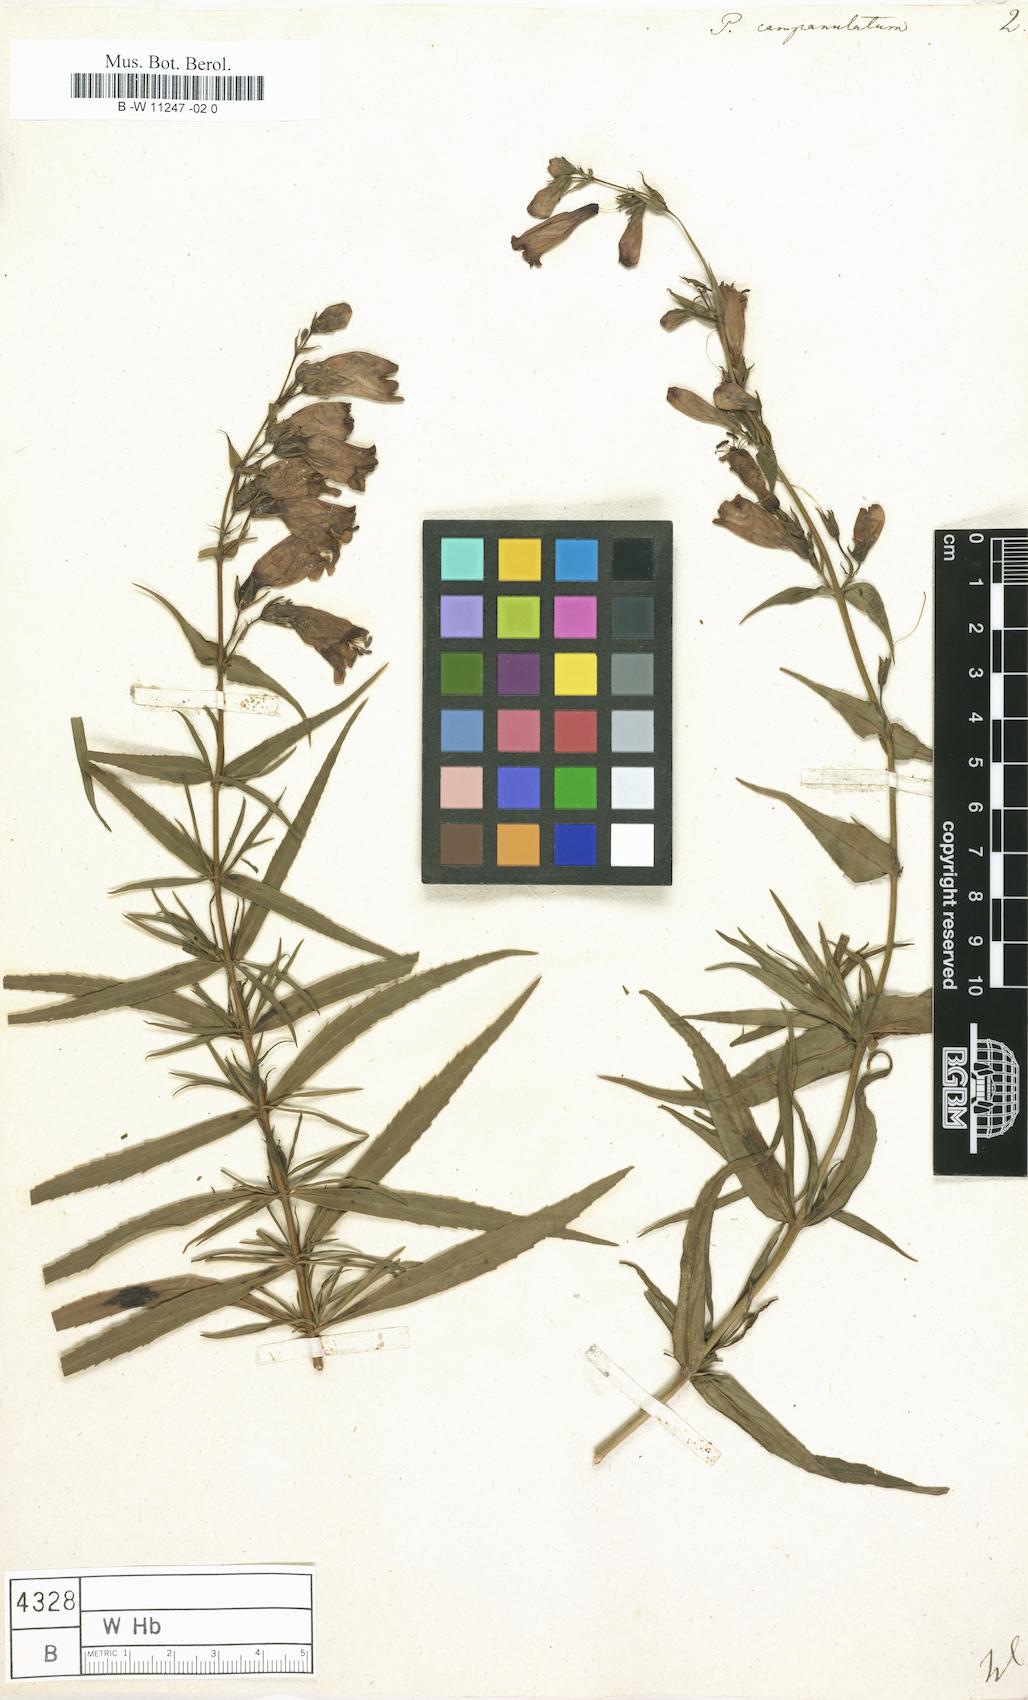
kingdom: Plantae
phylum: Tracheophyta
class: Magnoliopsida
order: Lamiales
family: Plantaginaceae
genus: Penstemon
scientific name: Penstemon campanulatus
